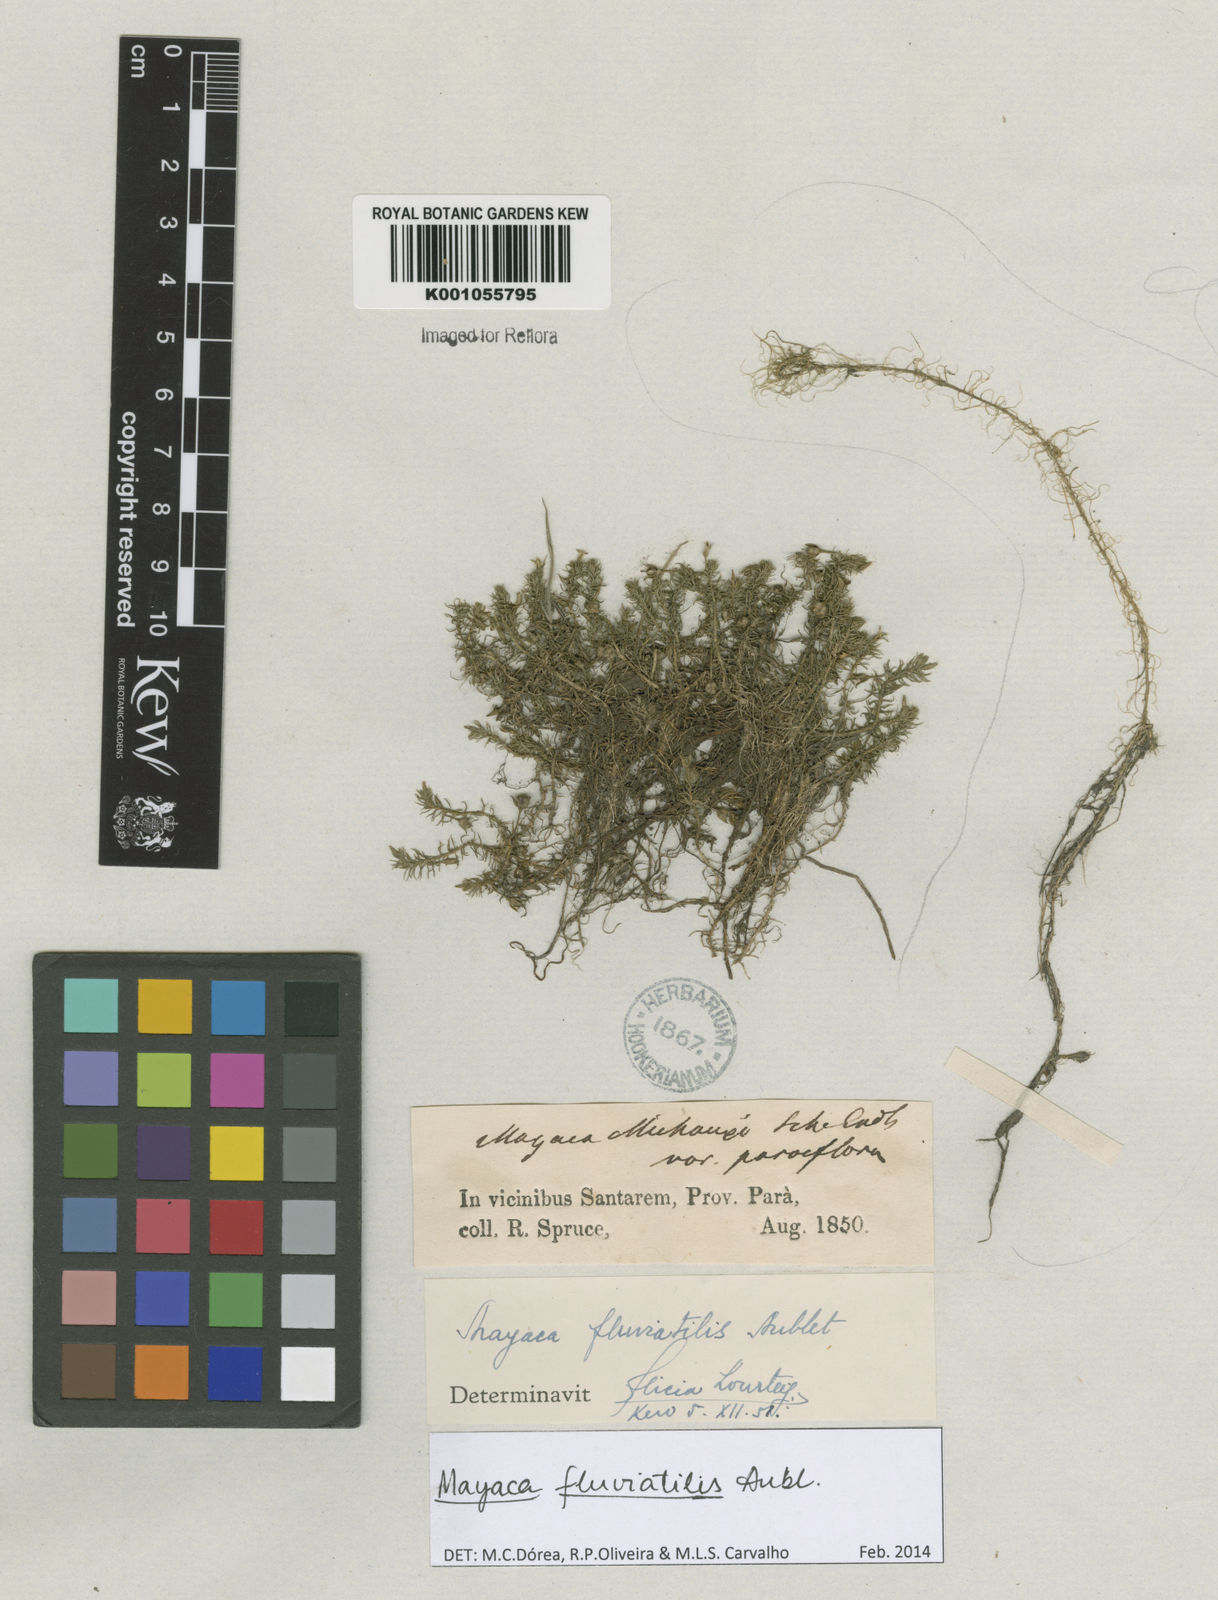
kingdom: Plantae
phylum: Tracheophyta
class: Liliopsida
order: Poales
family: Mayacaceae
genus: Mayaca
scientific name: Mayaca
